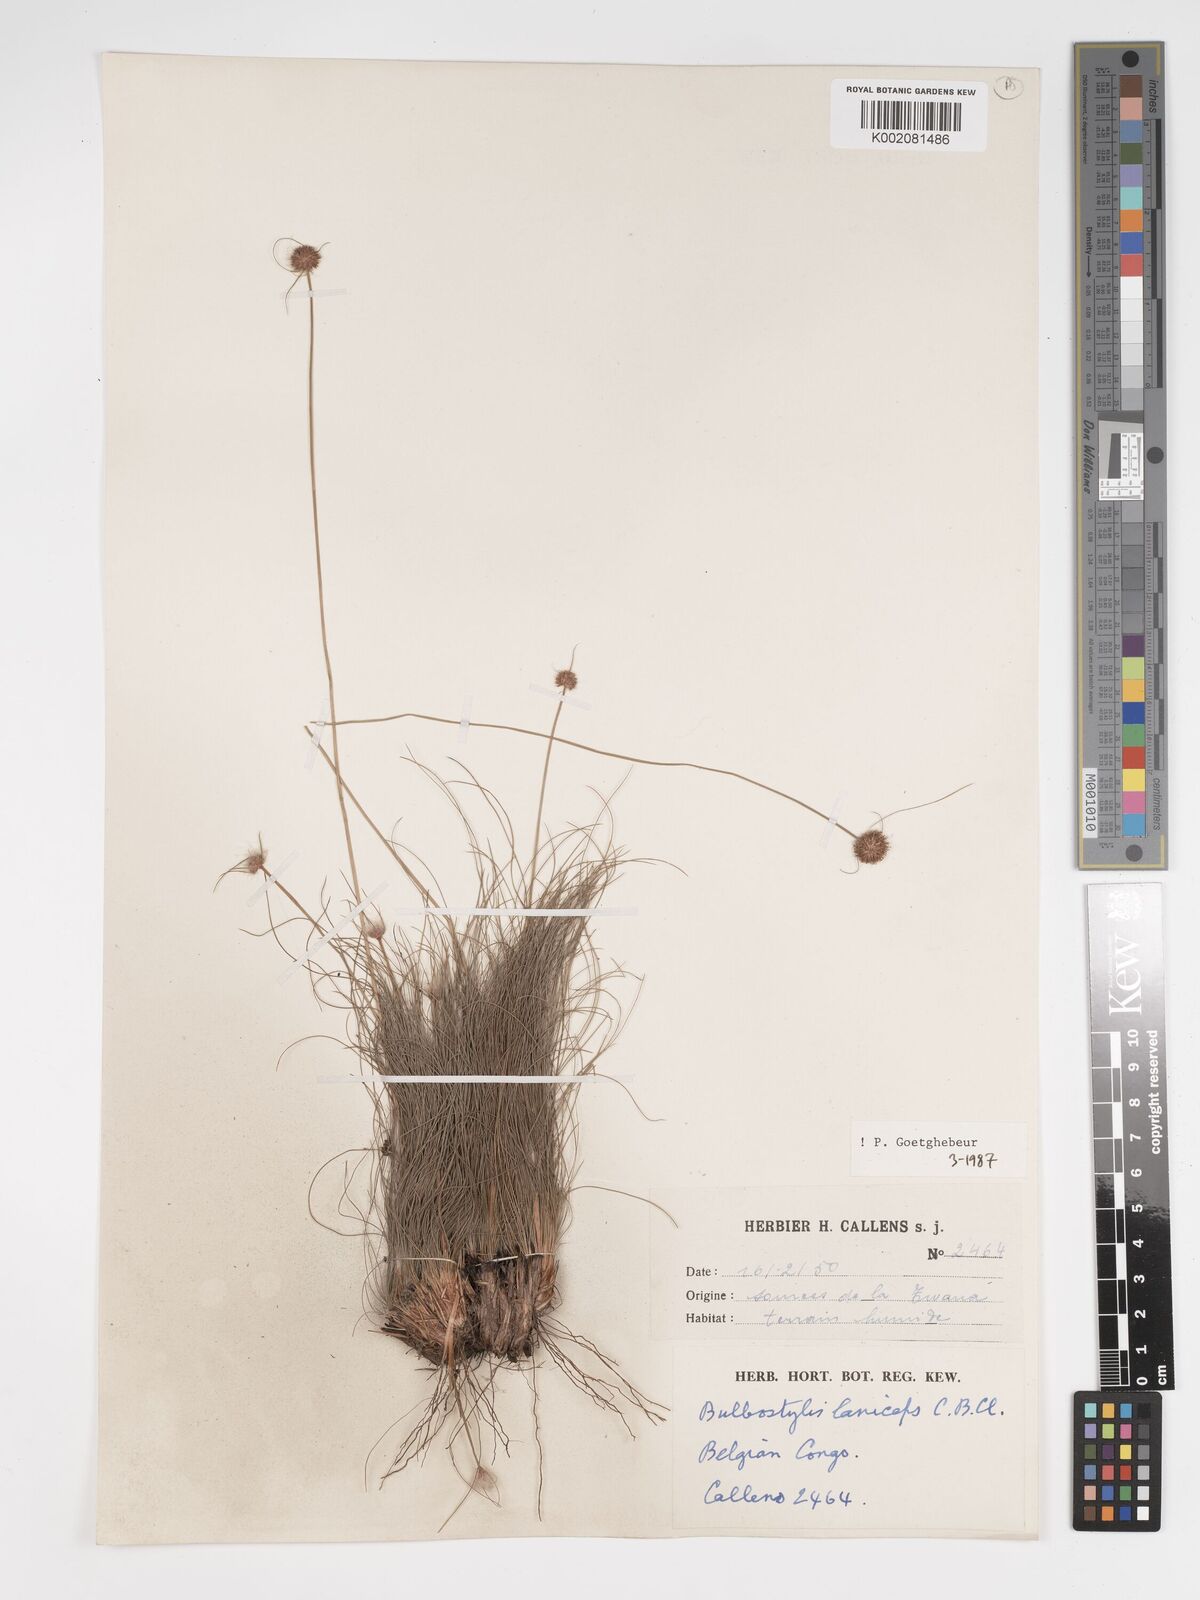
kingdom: Plantae
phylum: Tracheophyta
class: Liliopsida
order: Poales
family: Cyperaceae
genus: Bulbostylis
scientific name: Bulbostylis laniceps
